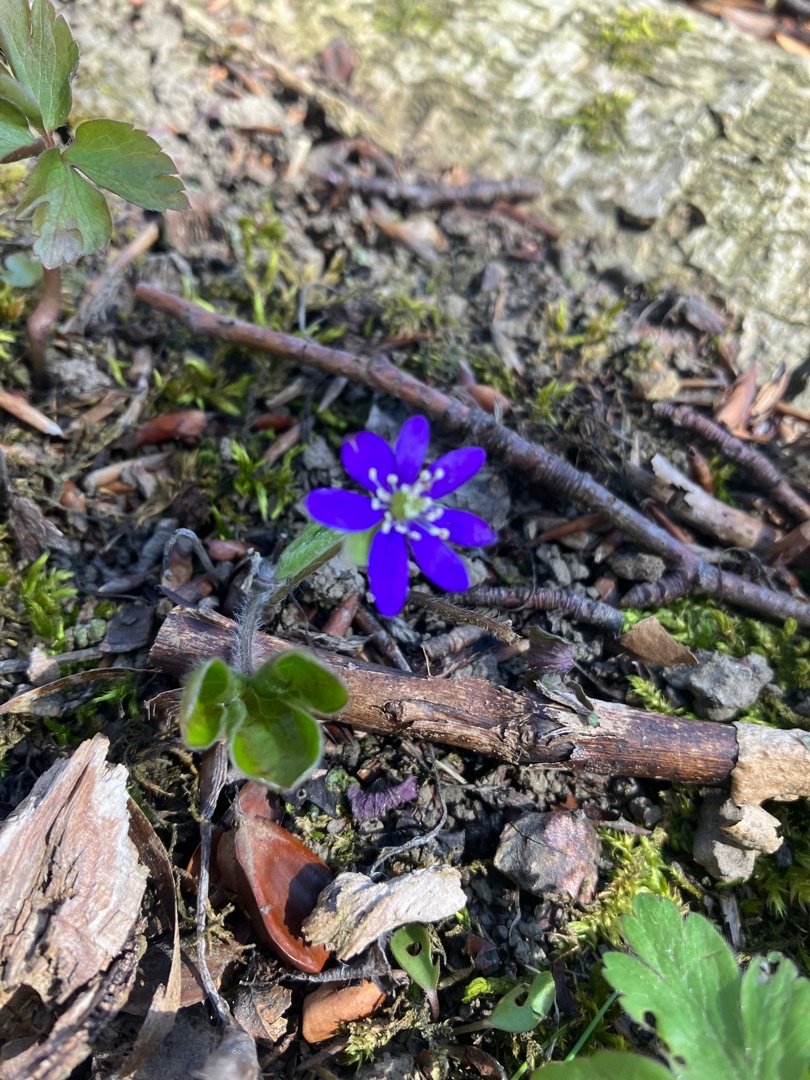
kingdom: Plantae
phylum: Tracheophyta
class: Magnoliopsida
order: Ranunculales
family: Ranunculaceae
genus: Hepatica
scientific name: Hepatica nobilis
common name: Blå anemone
